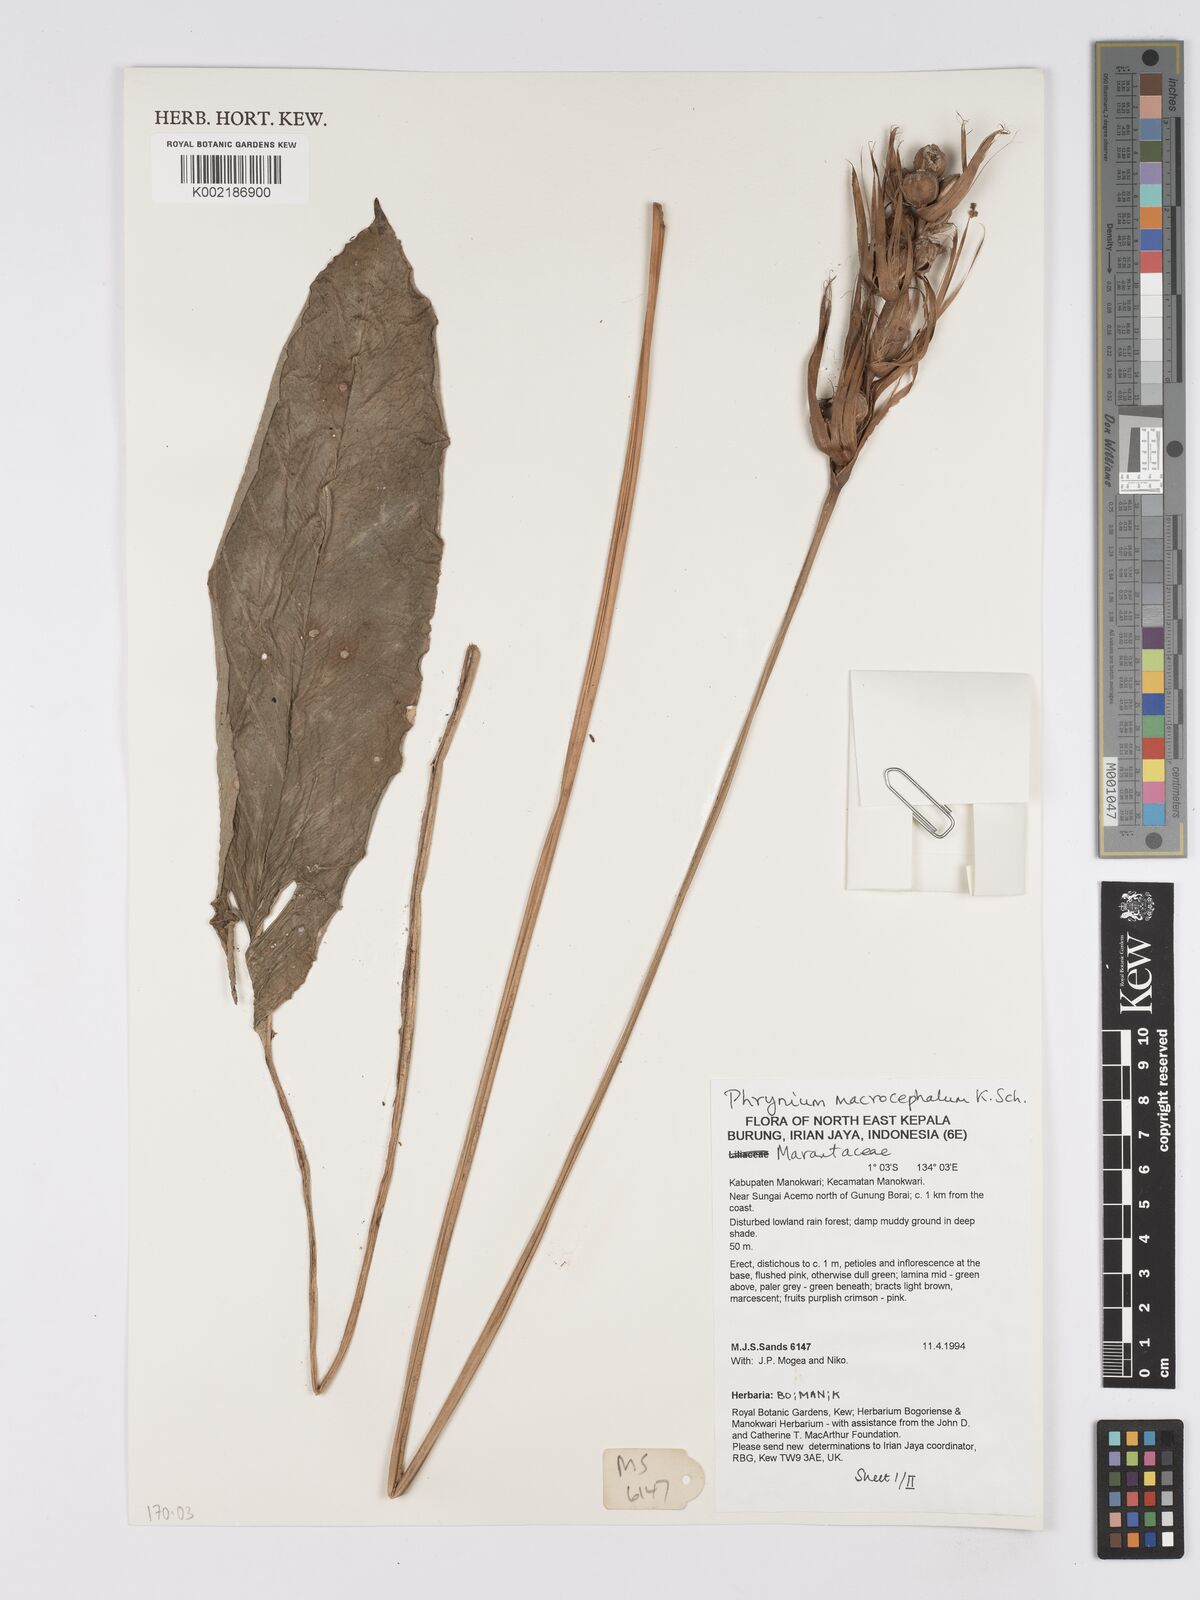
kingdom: Plantae
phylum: Tracheophyta
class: Liliopsida
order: Zingiberales
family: Marantaceae
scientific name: Marantaceae
